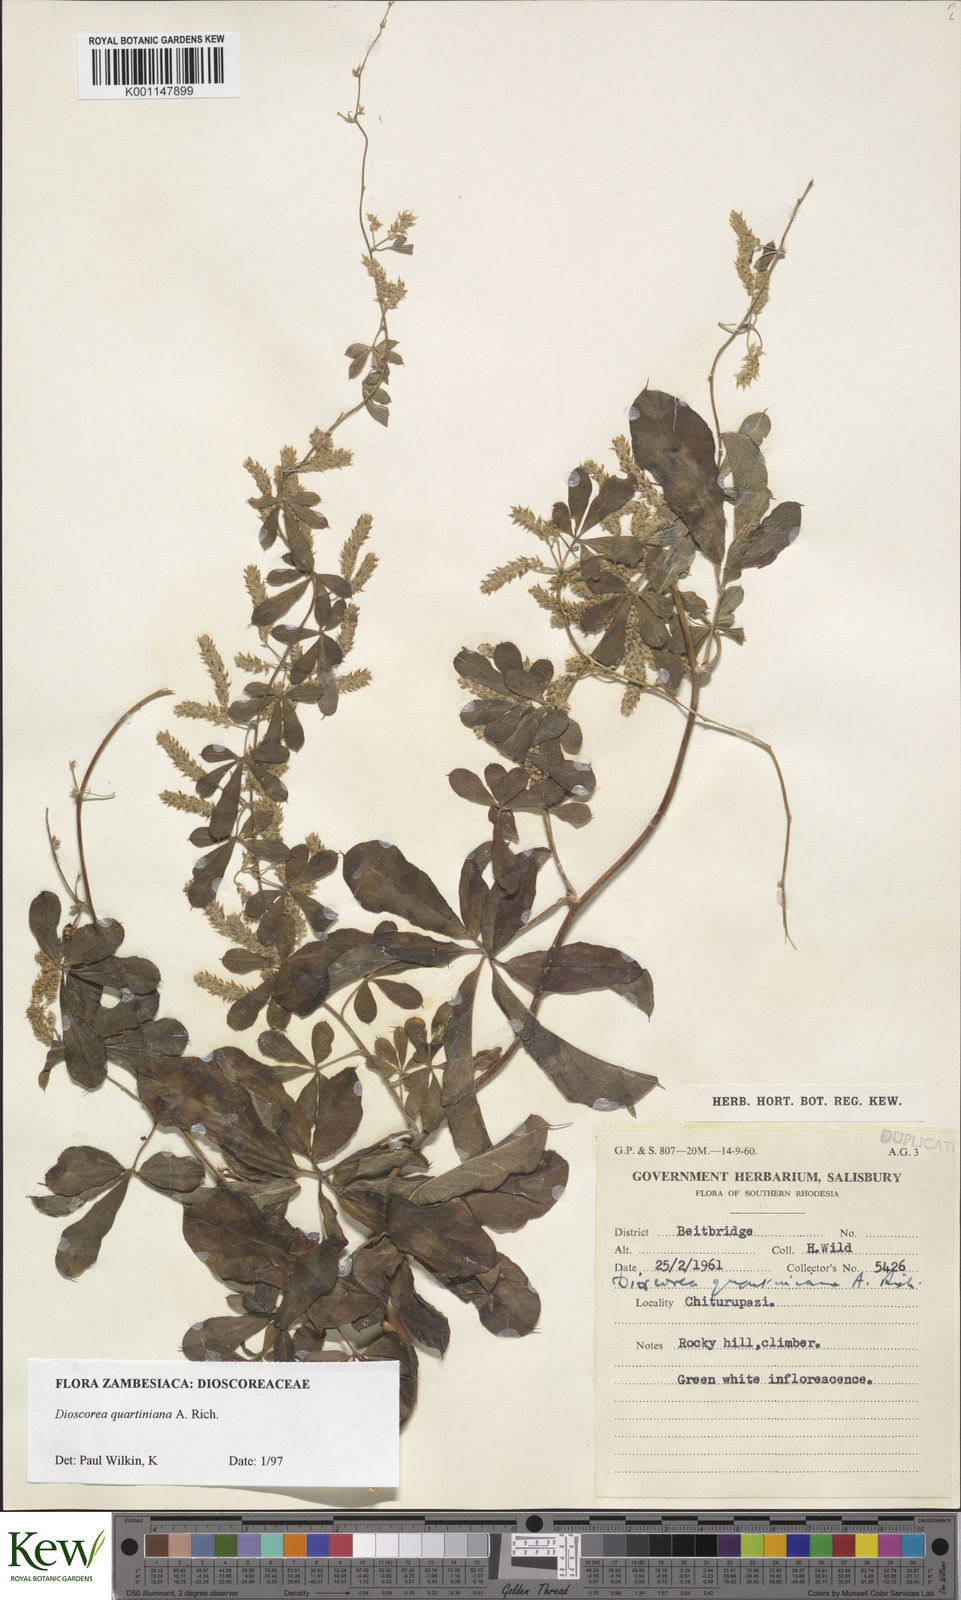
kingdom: Plantae
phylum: Tracheophyta
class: Liliopsida
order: Dioscoreales
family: Dioscoreaceae
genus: Dioscorea
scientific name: Dioscorea quartiniana
